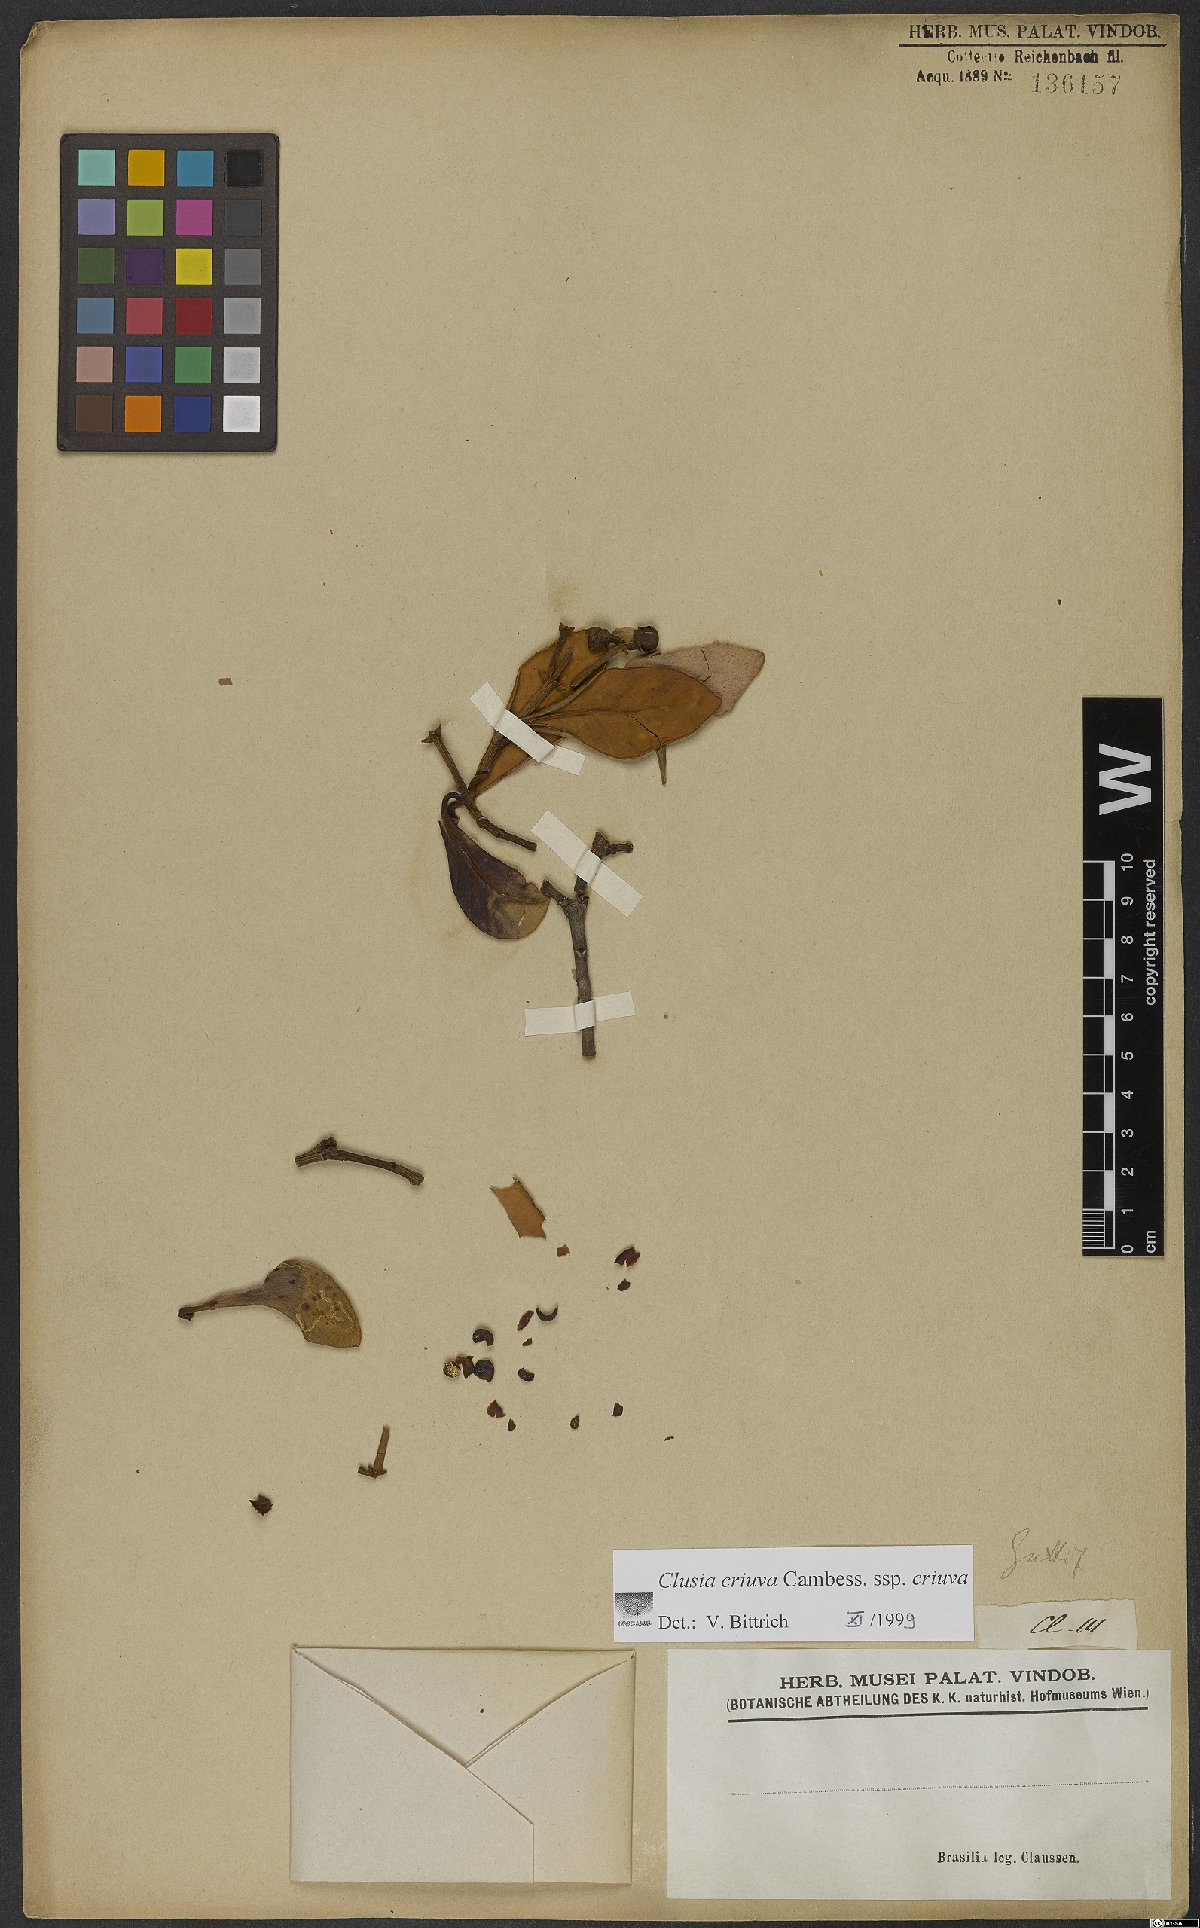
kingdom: Plantae
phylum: Tracheophyta
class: Magnoliopsida
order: Malpighiales
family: Clusiaceae
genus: Clusia
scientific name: Clusia criuva
